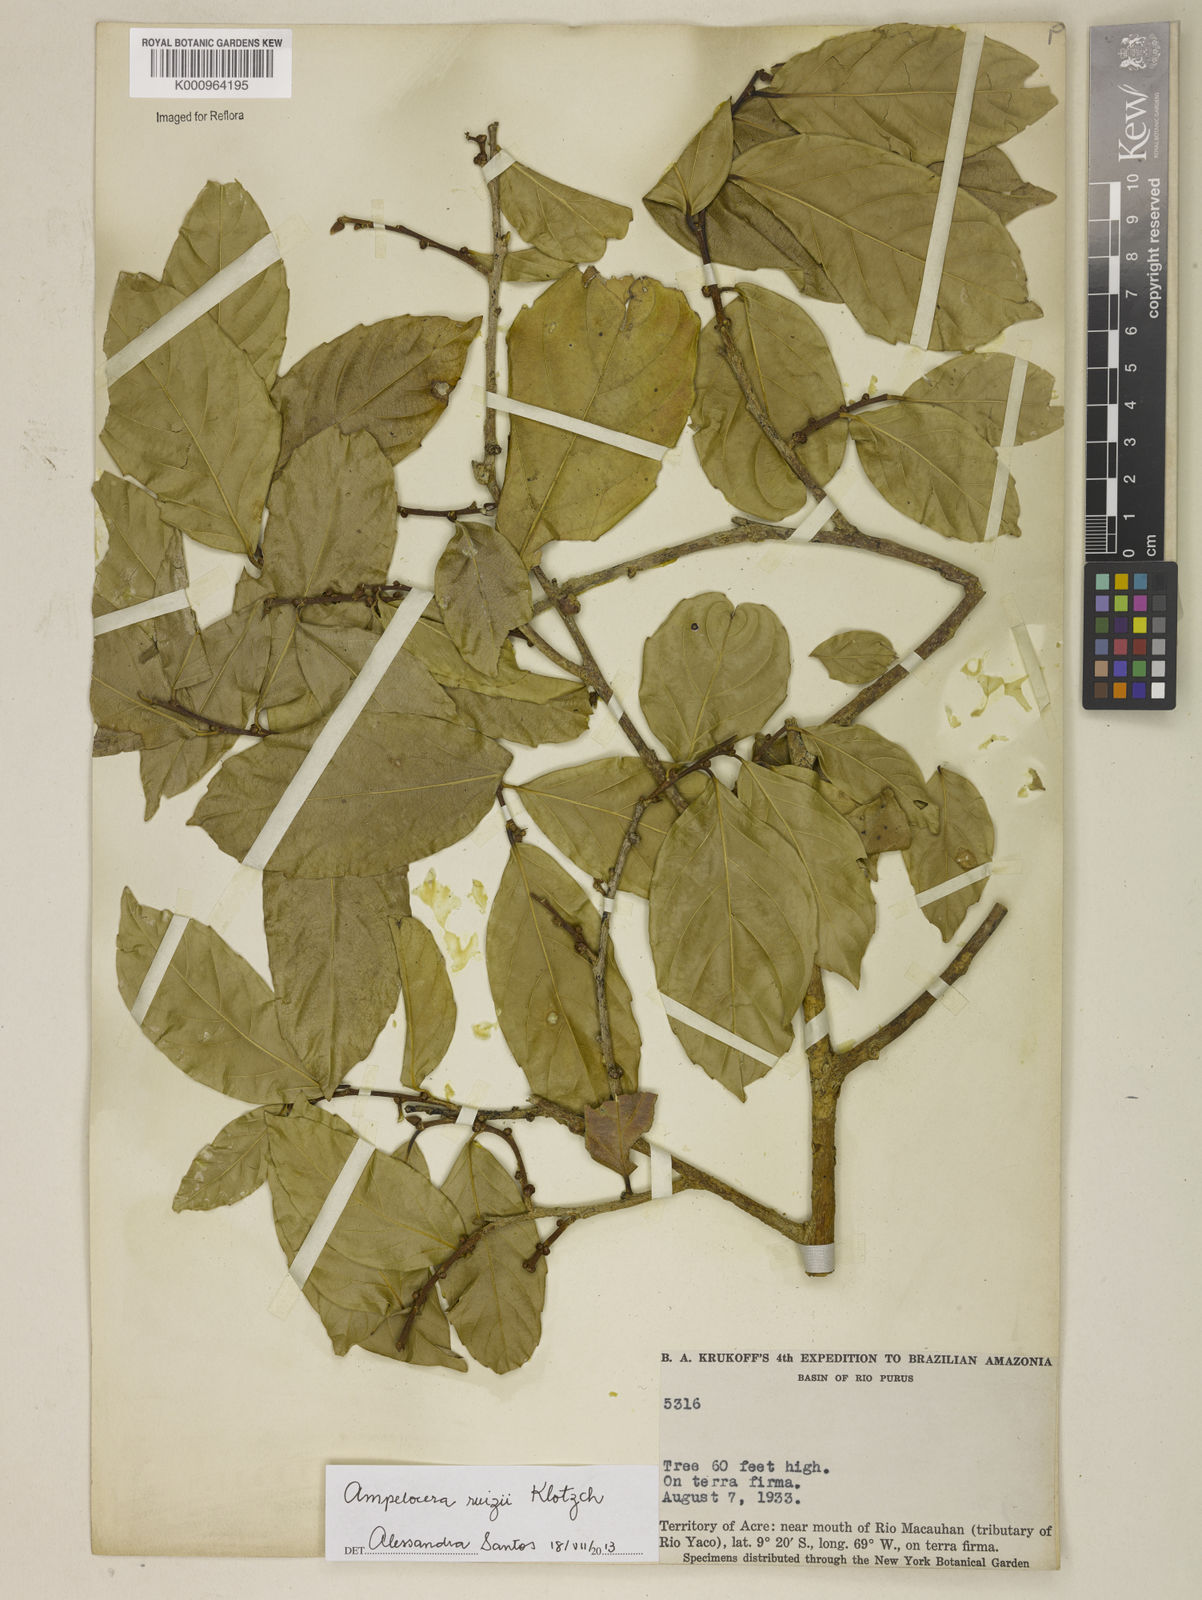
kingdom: Plantae
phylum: Tracheophyta
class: Magnoliopsida
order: Rosales
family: Cannabaceae
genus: Ampelocera
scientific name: Ampelocera ruizii
